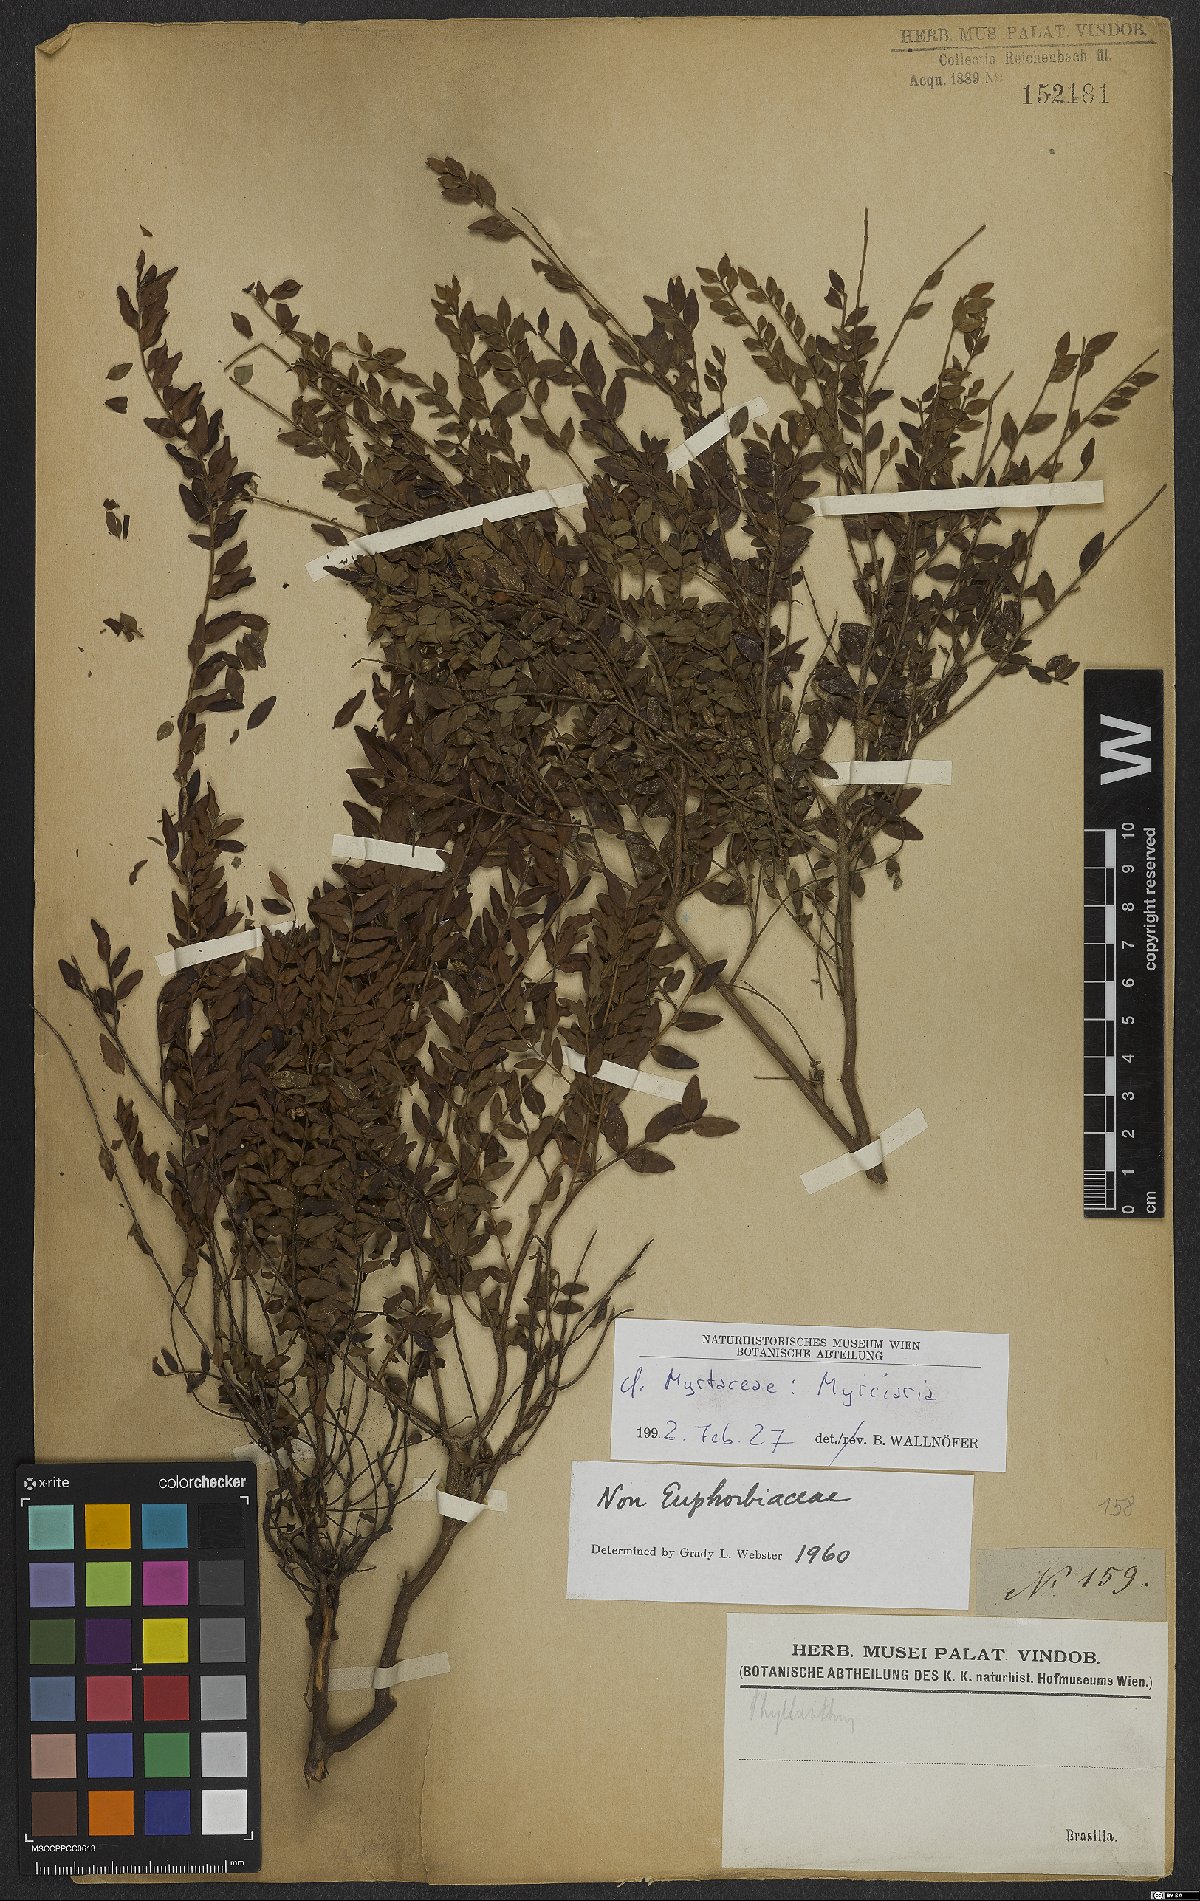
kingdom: Plantae
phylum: Tracheophyta
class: Magnoliopsida
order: Myrtales
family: Myrtaceae
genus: Myrciaria
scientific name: Myrciaria
